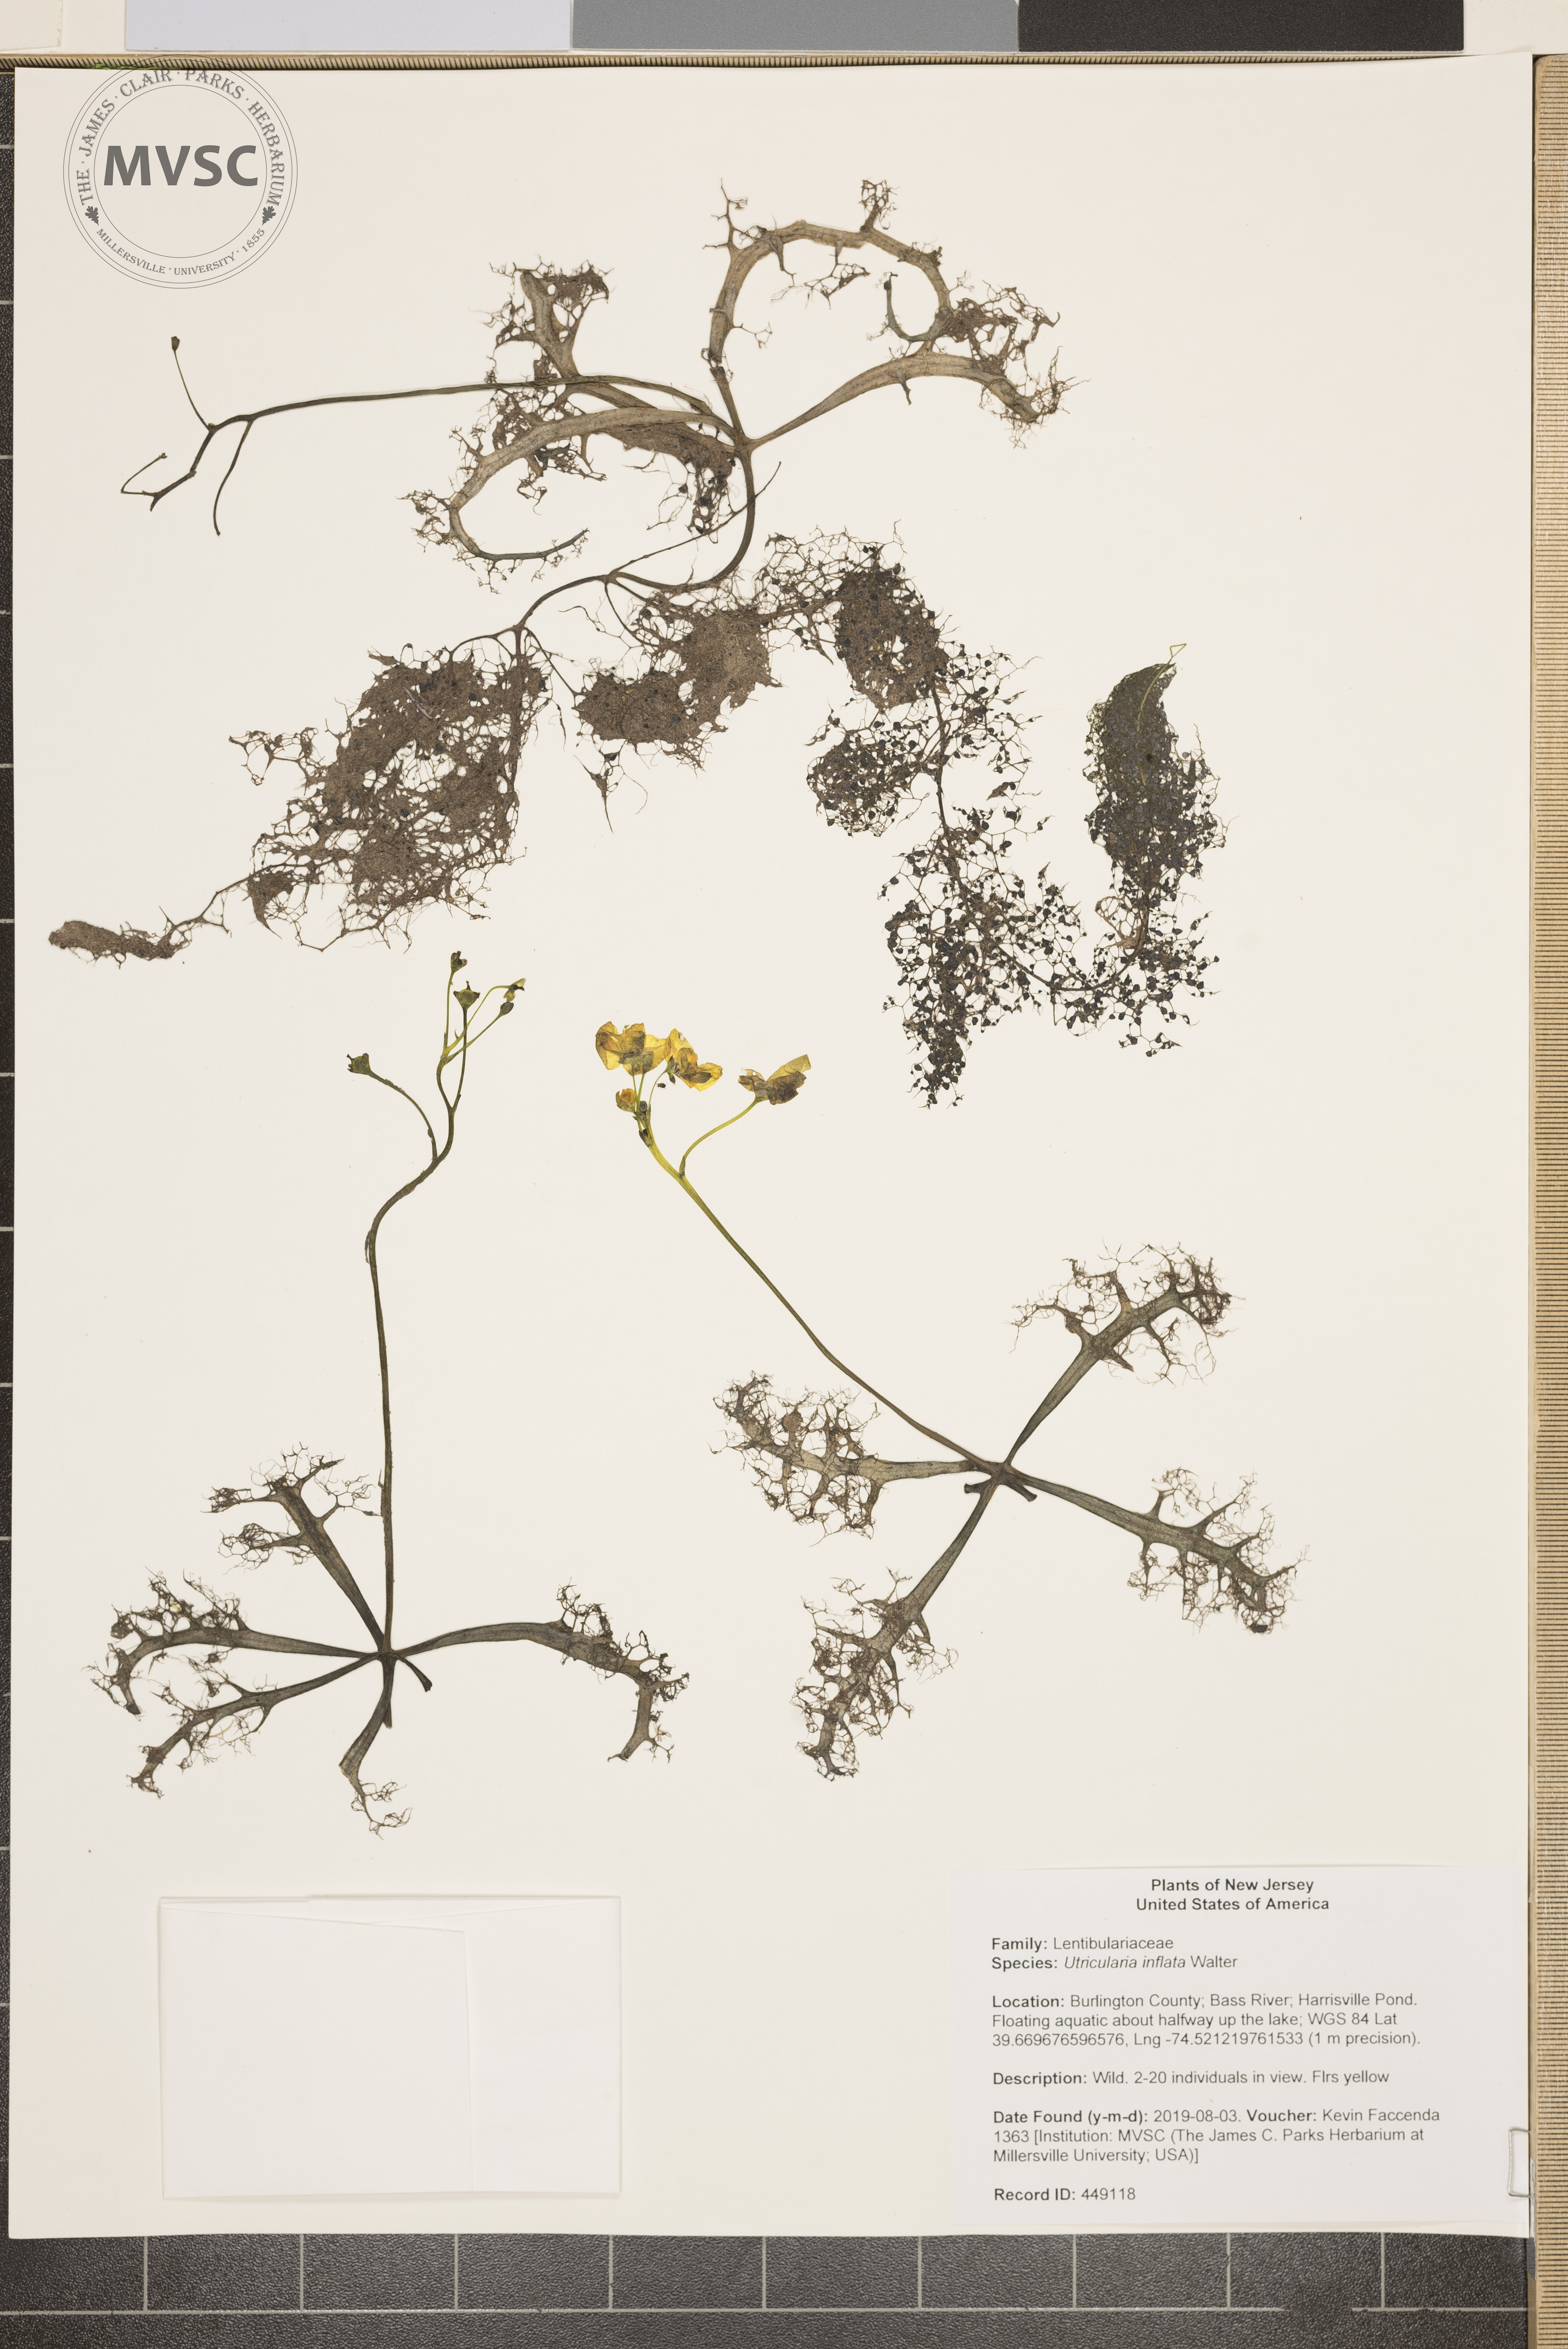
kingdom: Plantae
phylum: Tracheophyta
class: Magnoliopsida
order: Lamiales
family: Lentibulariaceae
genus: Utricularia
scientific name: Utricularia inflata
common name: Floating bladderwort
